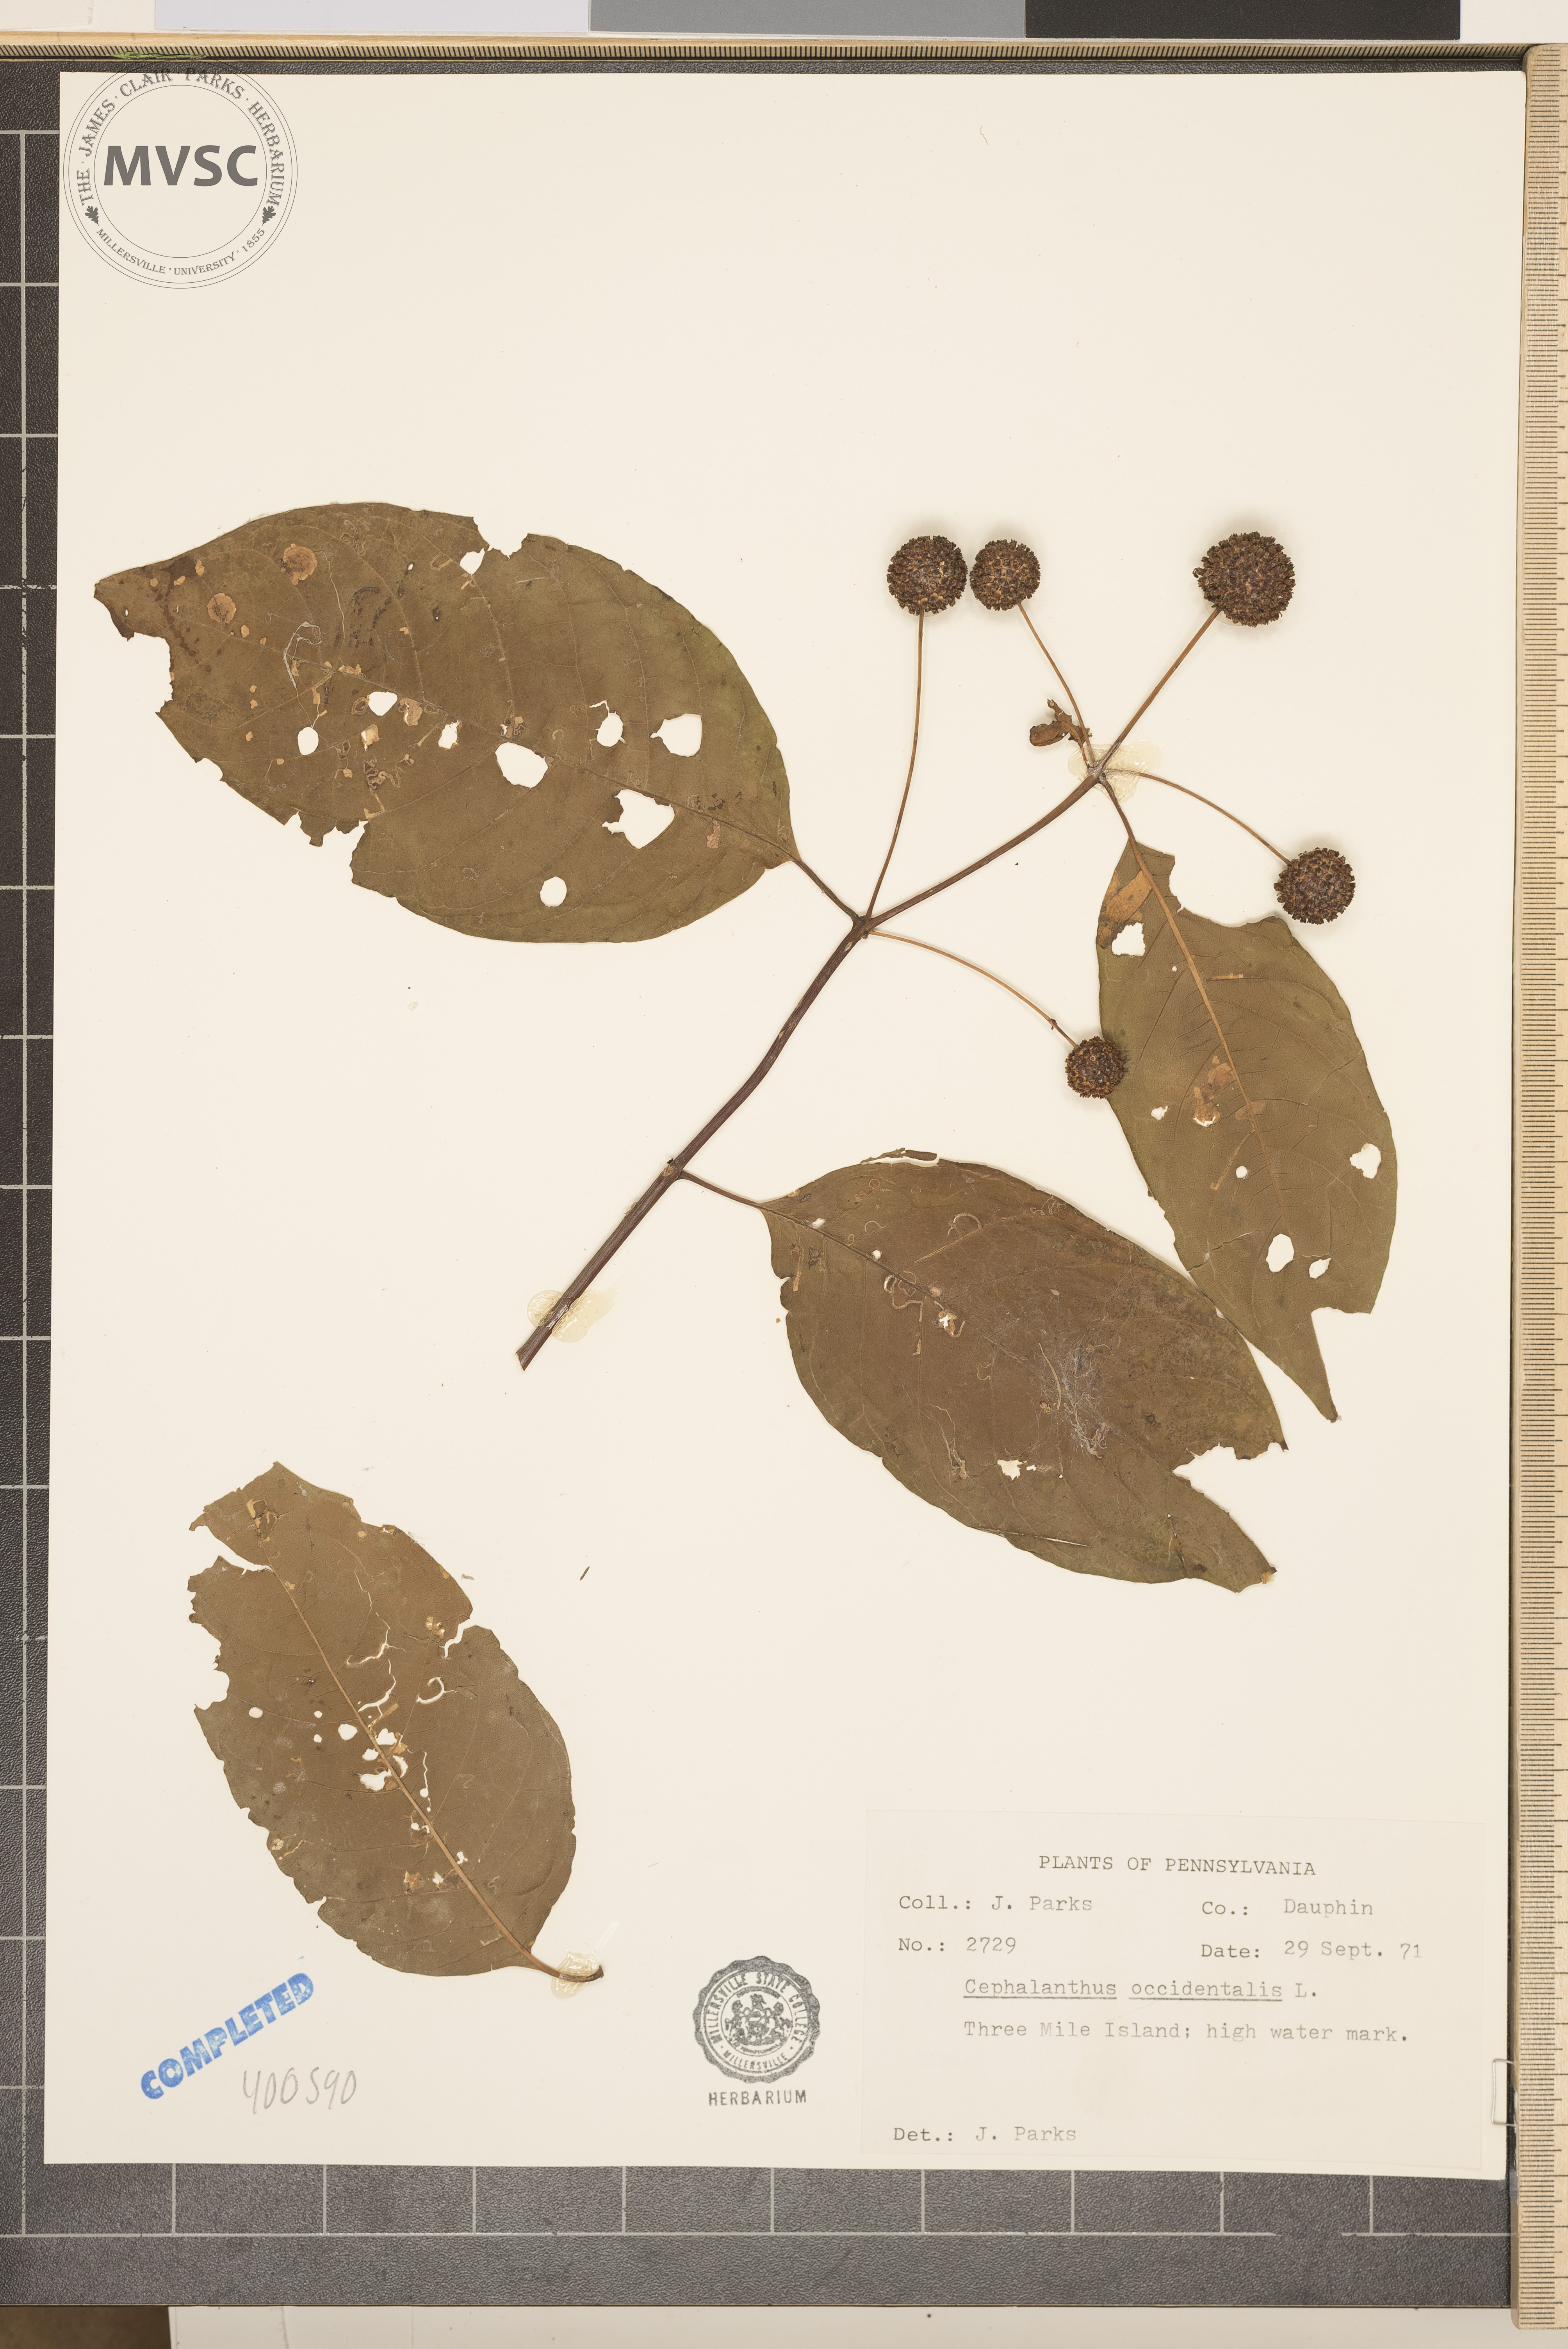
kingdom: Plantae
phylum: Tracheophyta
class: Magnoliopsida
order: Gentianales
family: Rubiaceae
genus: Cephalanthus
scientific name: Cephalanthus occidentalis
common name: buttonbush
